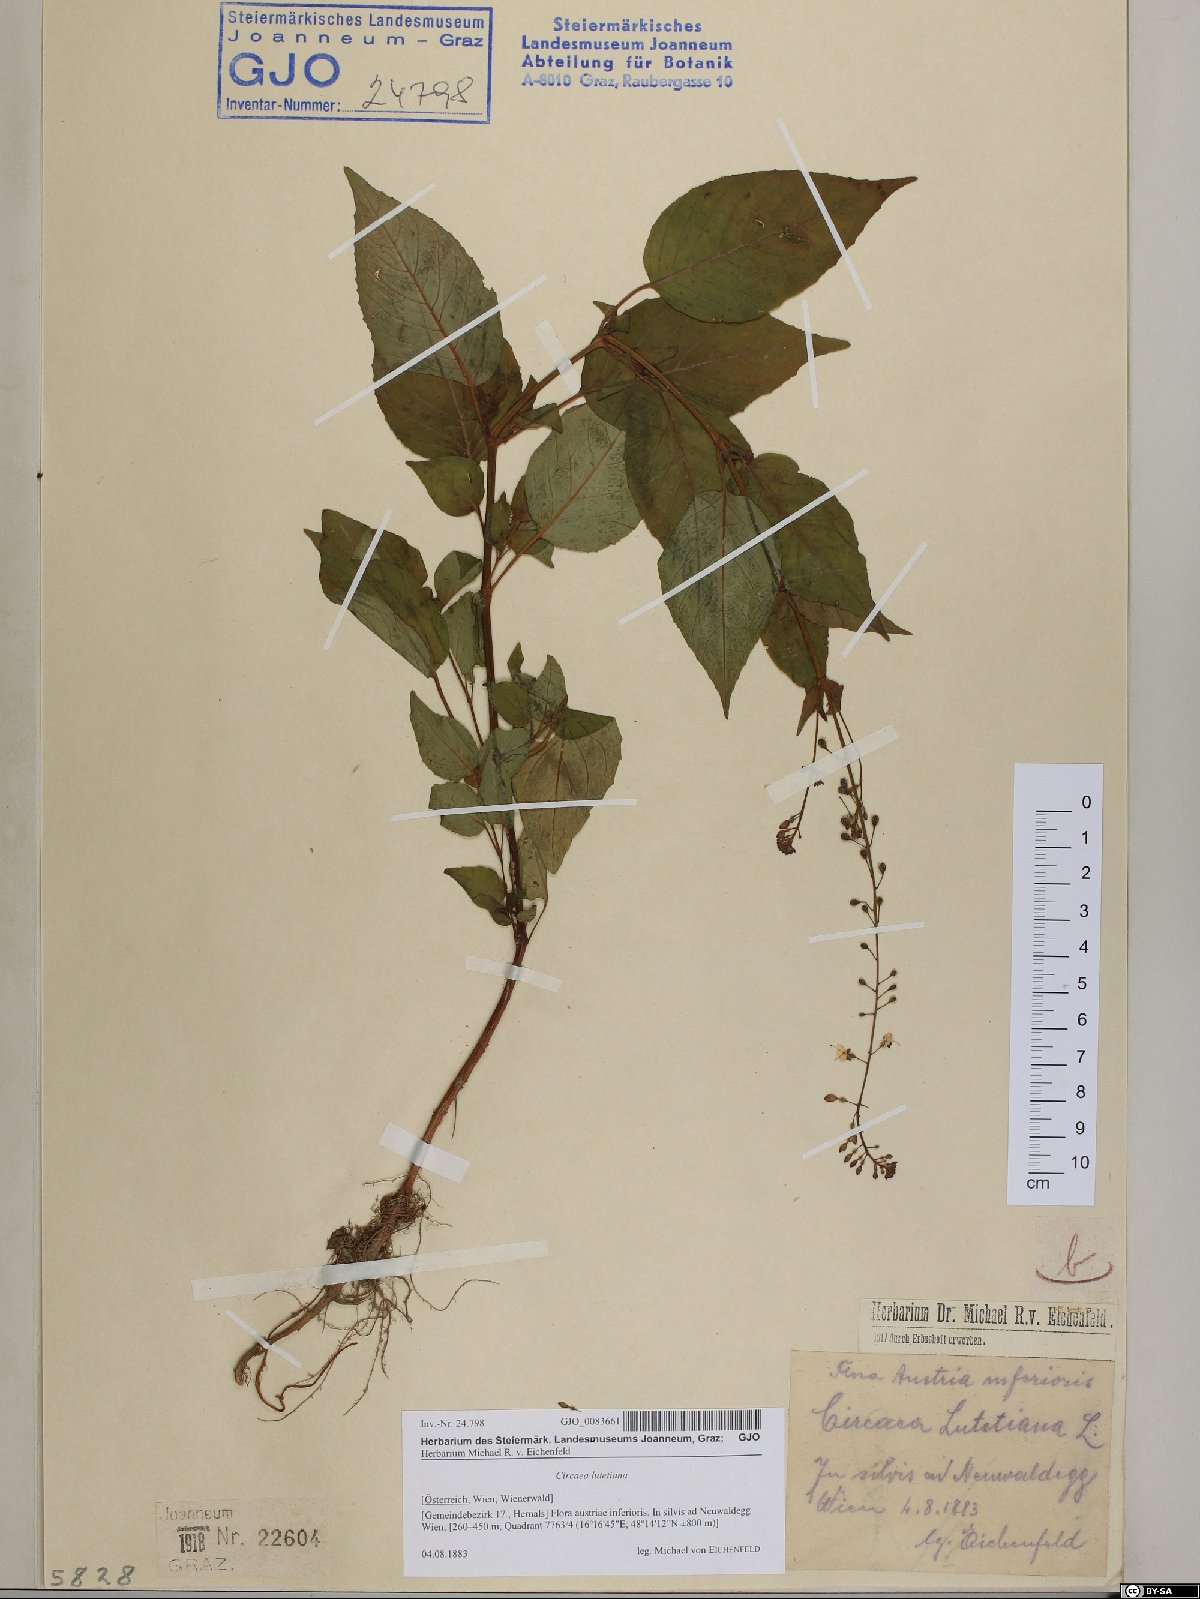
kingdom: Plantae
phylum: Tracheophyta
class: Magnoliopsida
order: Myrtales
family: Onagraceae
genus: Circaea
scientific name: Circaea lutetiana
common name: Enchanter's-nightshade
